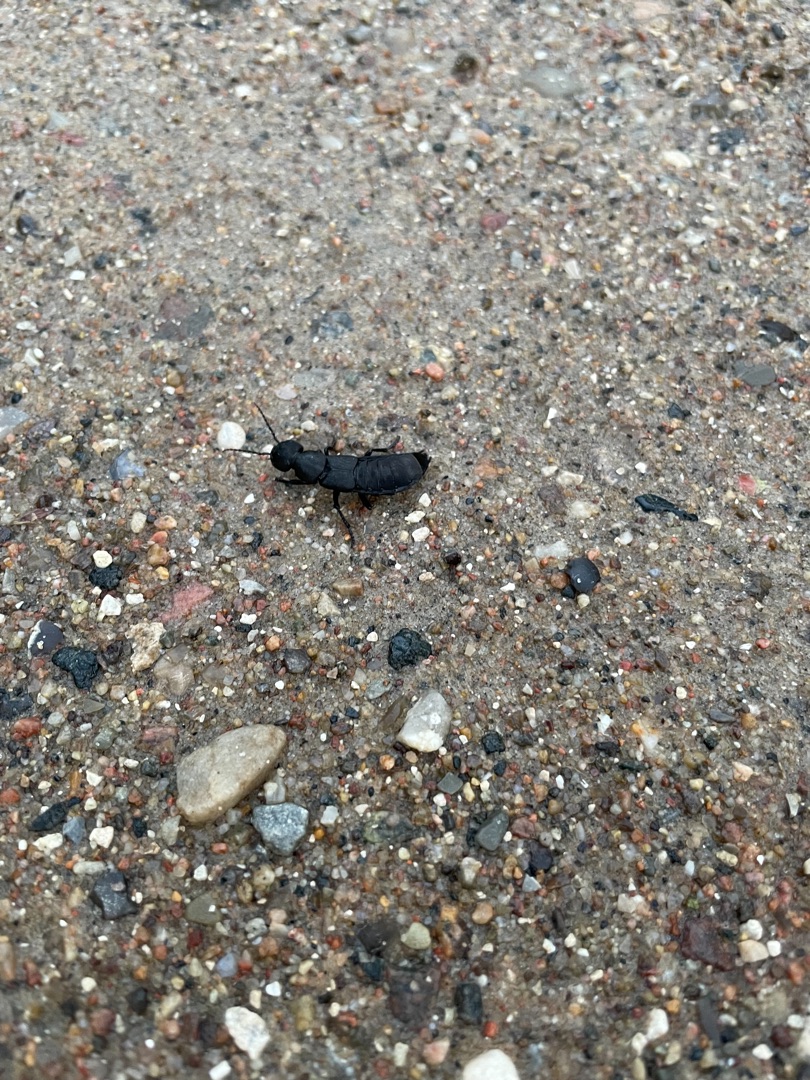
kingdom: Animalia
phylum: Arthropoda
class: Insecta
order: Coleoptera
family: Staphylinidae
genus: Ocypus
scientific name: Ocypus olens
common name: Stor rovbille
